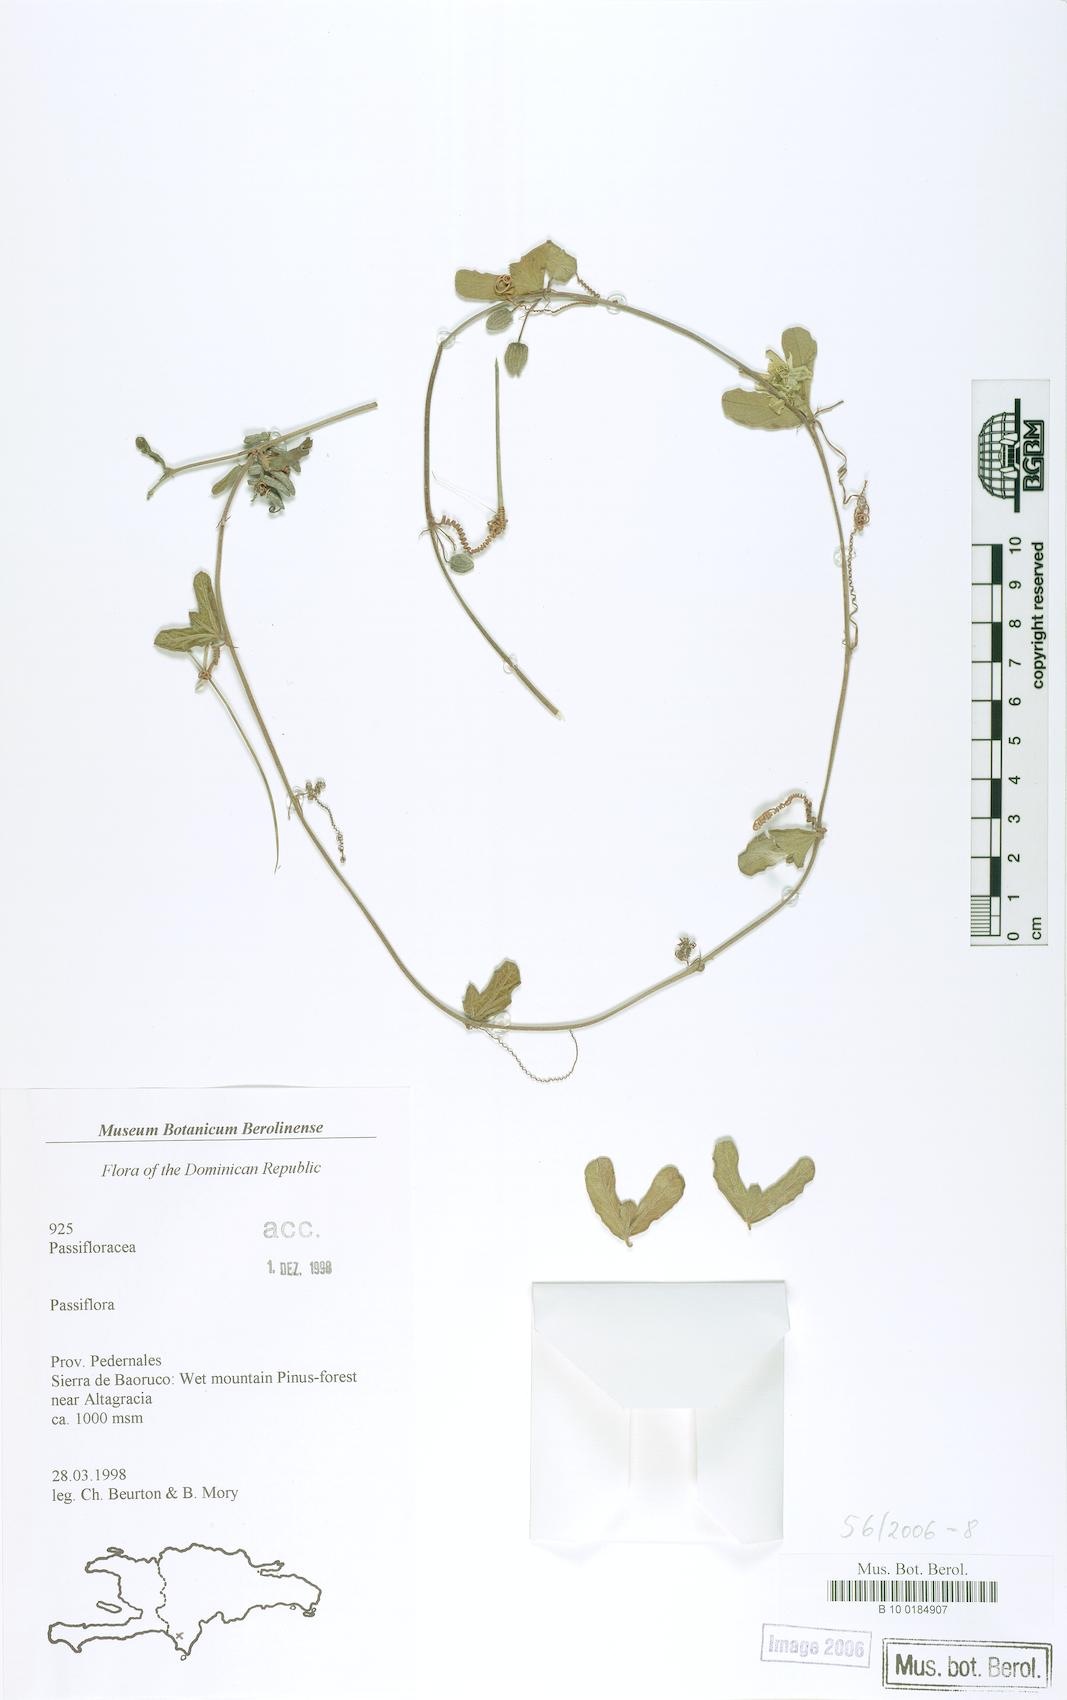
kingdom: Plantae
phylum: Tracheophyta
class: Magnoliopsida
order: Malpighiales
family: Passifloraceae
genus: Passiflora
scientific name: Passiflora
